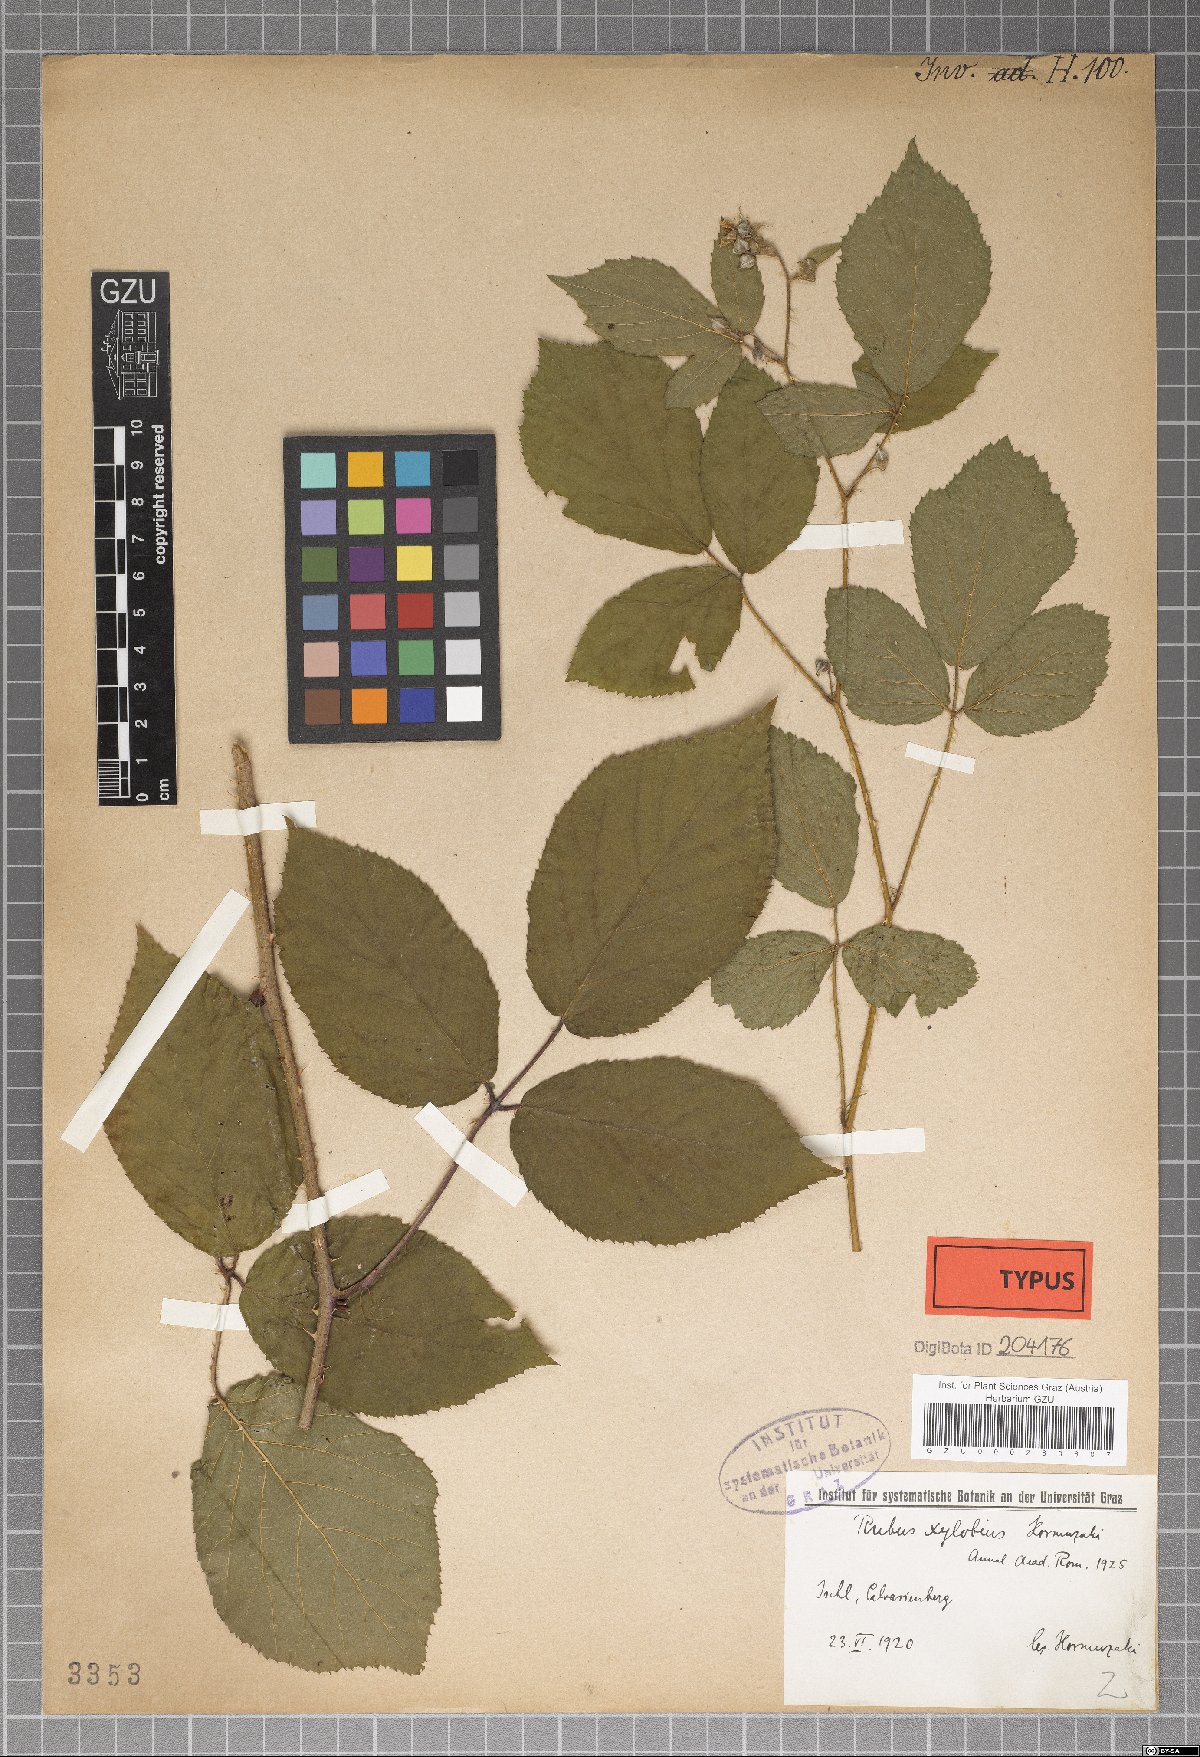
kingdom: Plantae
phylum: Tracheophyta
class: Magnoliopsida
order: Rosales
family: Rosaceae
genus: Rubus
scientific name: Rubus xylobius
